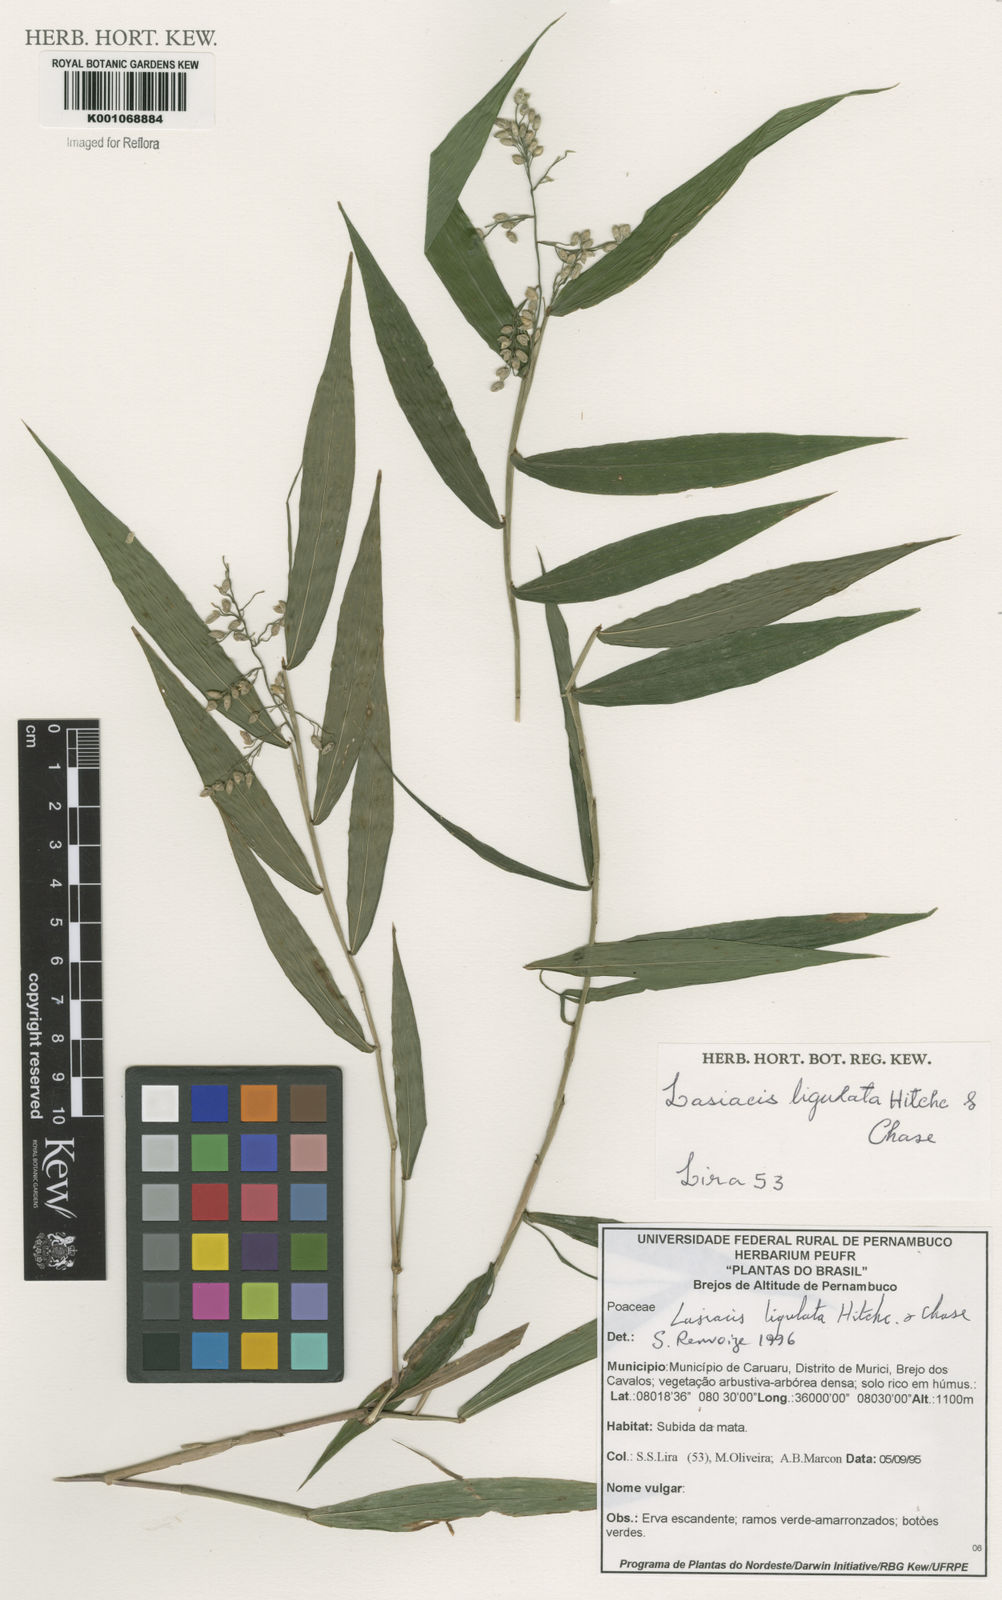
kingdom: Plantae
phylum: Tracheophyta
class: Liliopsida
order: Poales
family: Poaceae
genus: Lasiacis
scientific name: Lasiacis ligulata
